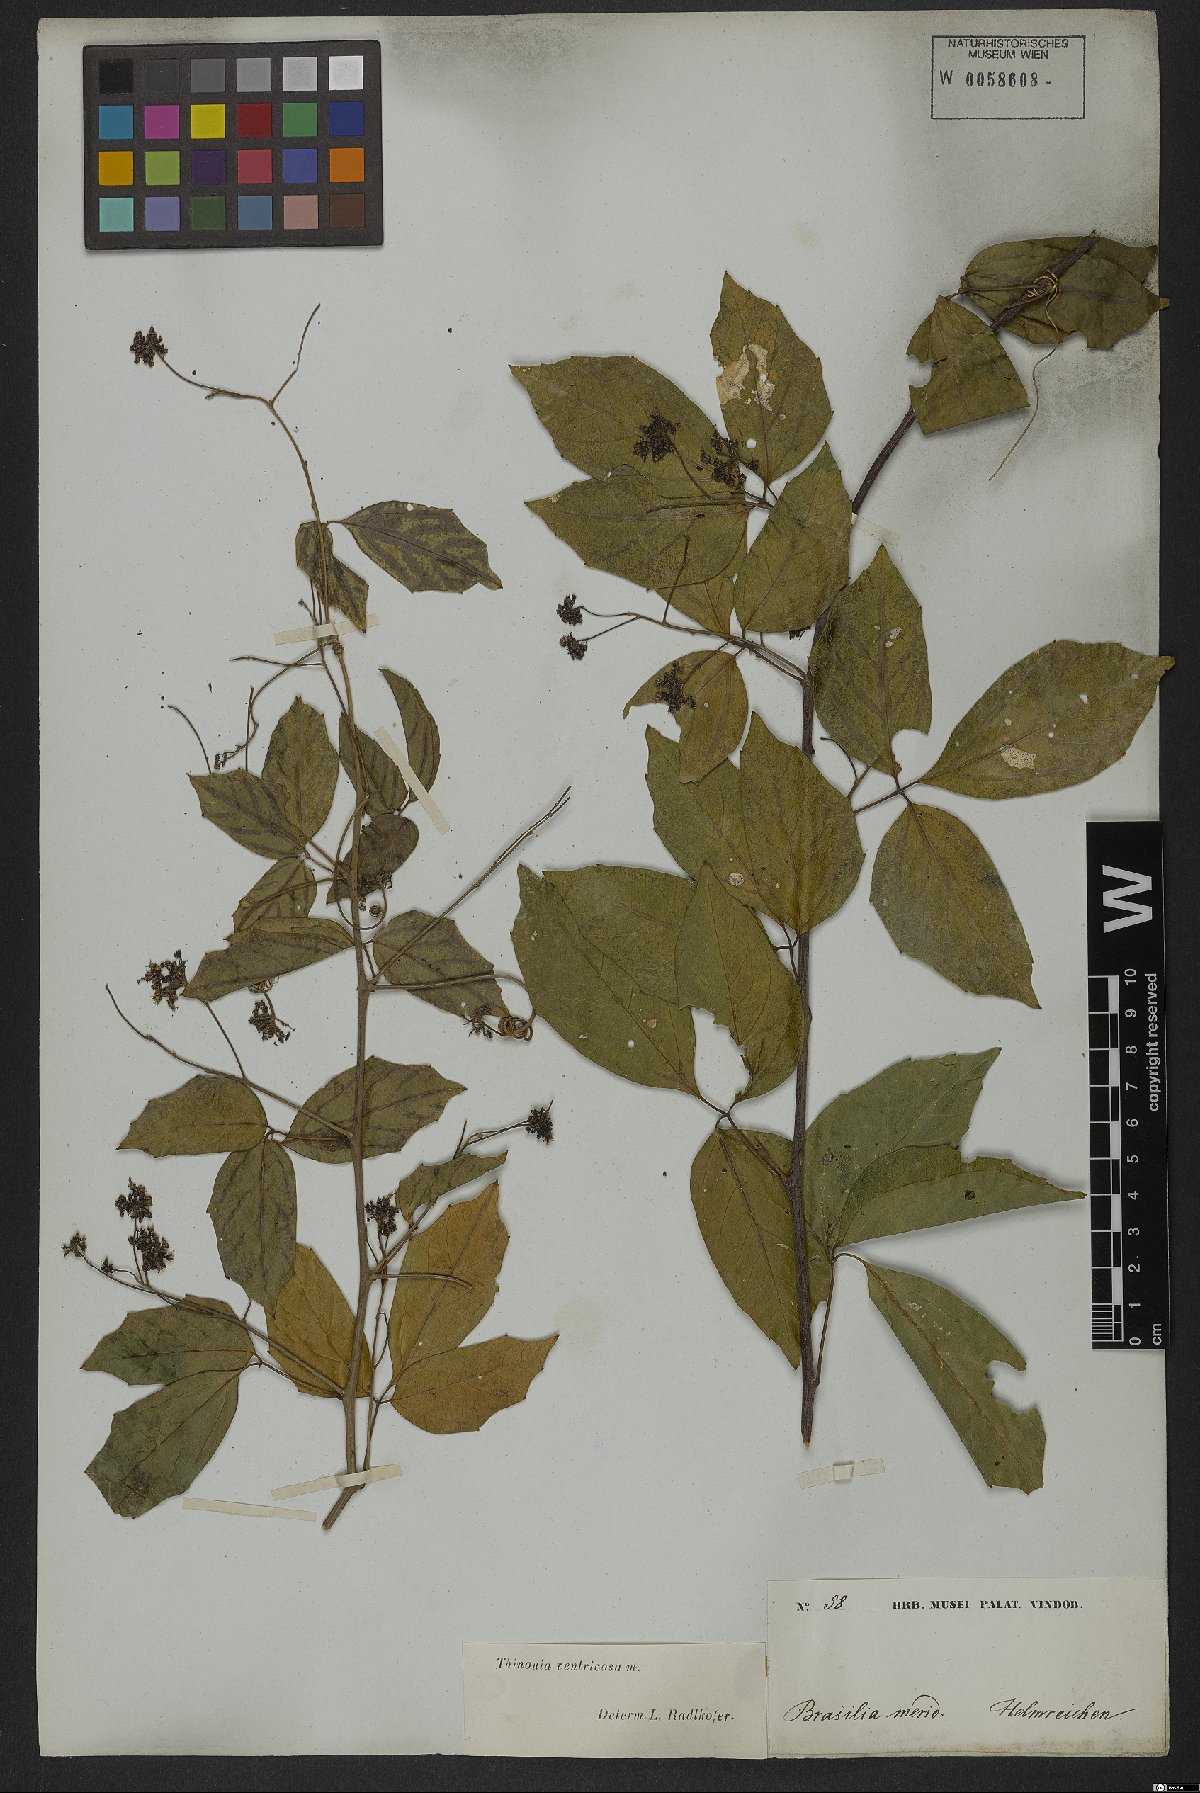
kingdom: Plantae
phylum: Tracheophyta
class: Magnoliopsida
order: Sapindales
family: Sapindaceae
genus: Thinouia
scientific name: Thinouia ventricosa
